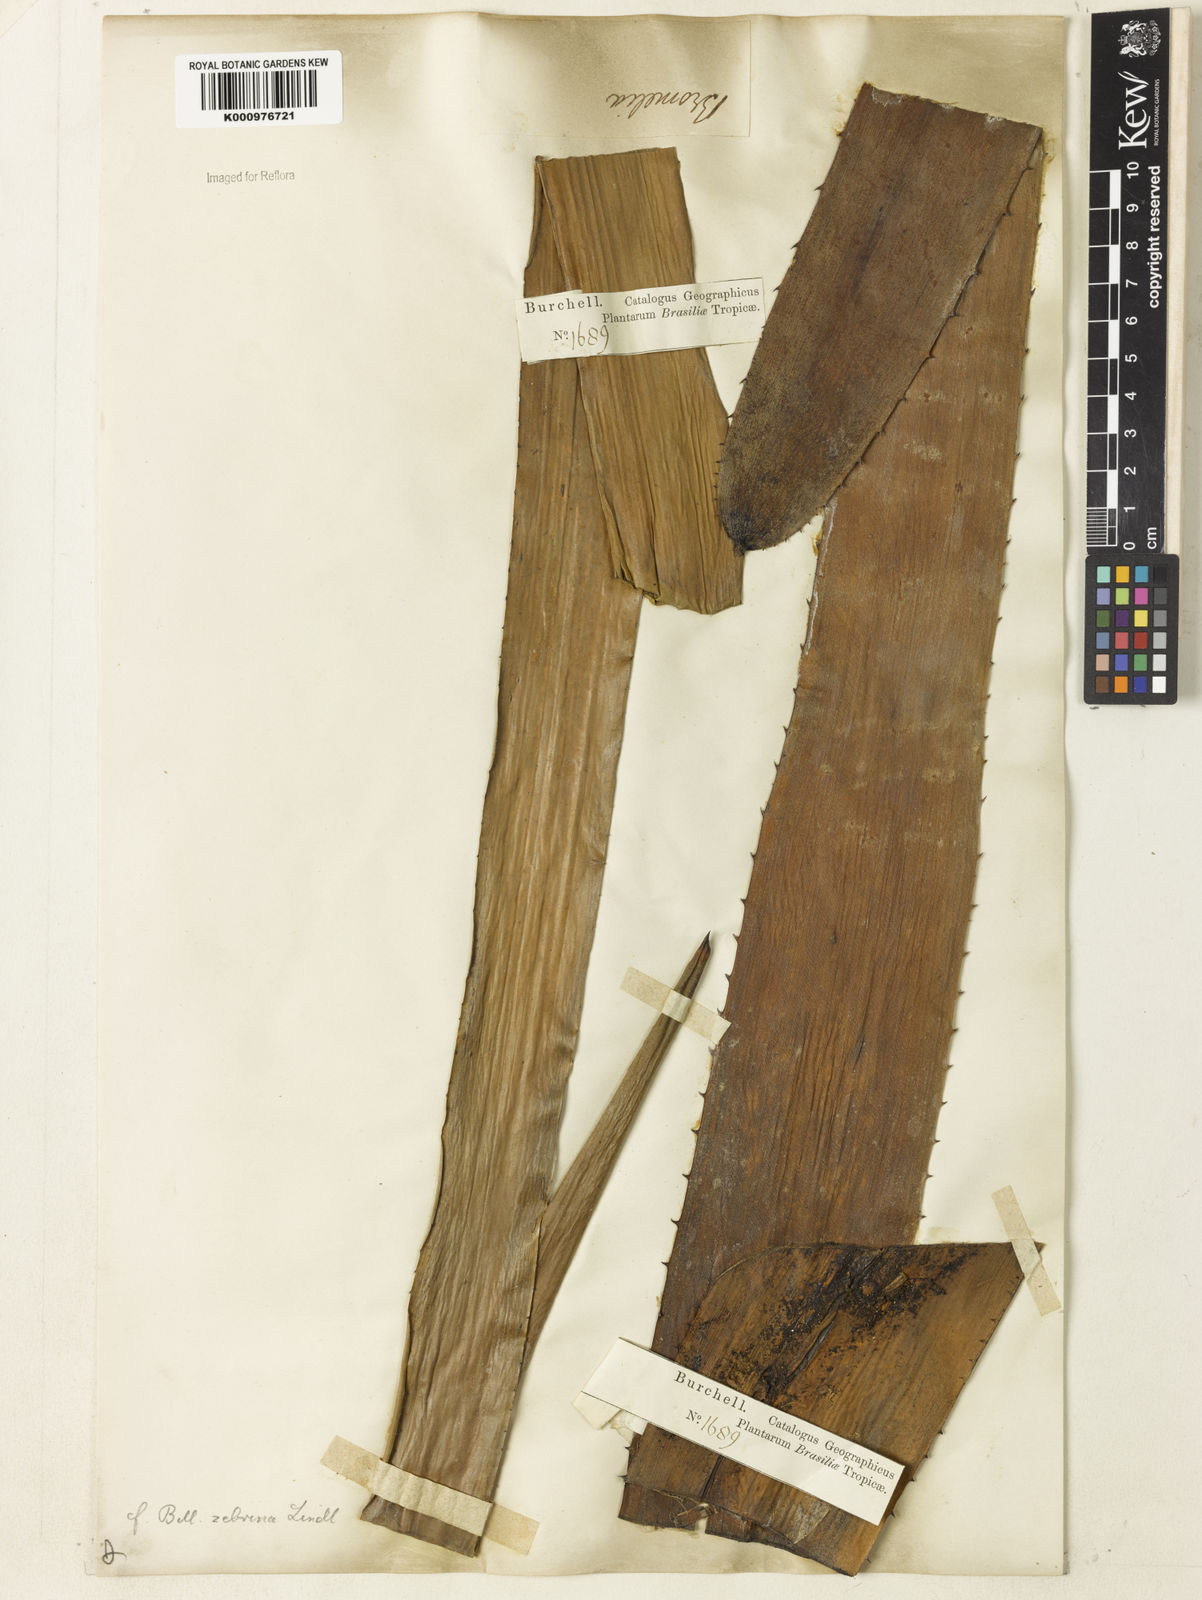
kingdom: Plantae
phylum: Tracheophyta
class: Liliopsida
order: Poales
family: Bromeliaceae
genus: Billbergia
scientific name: Billbergia zebrina
